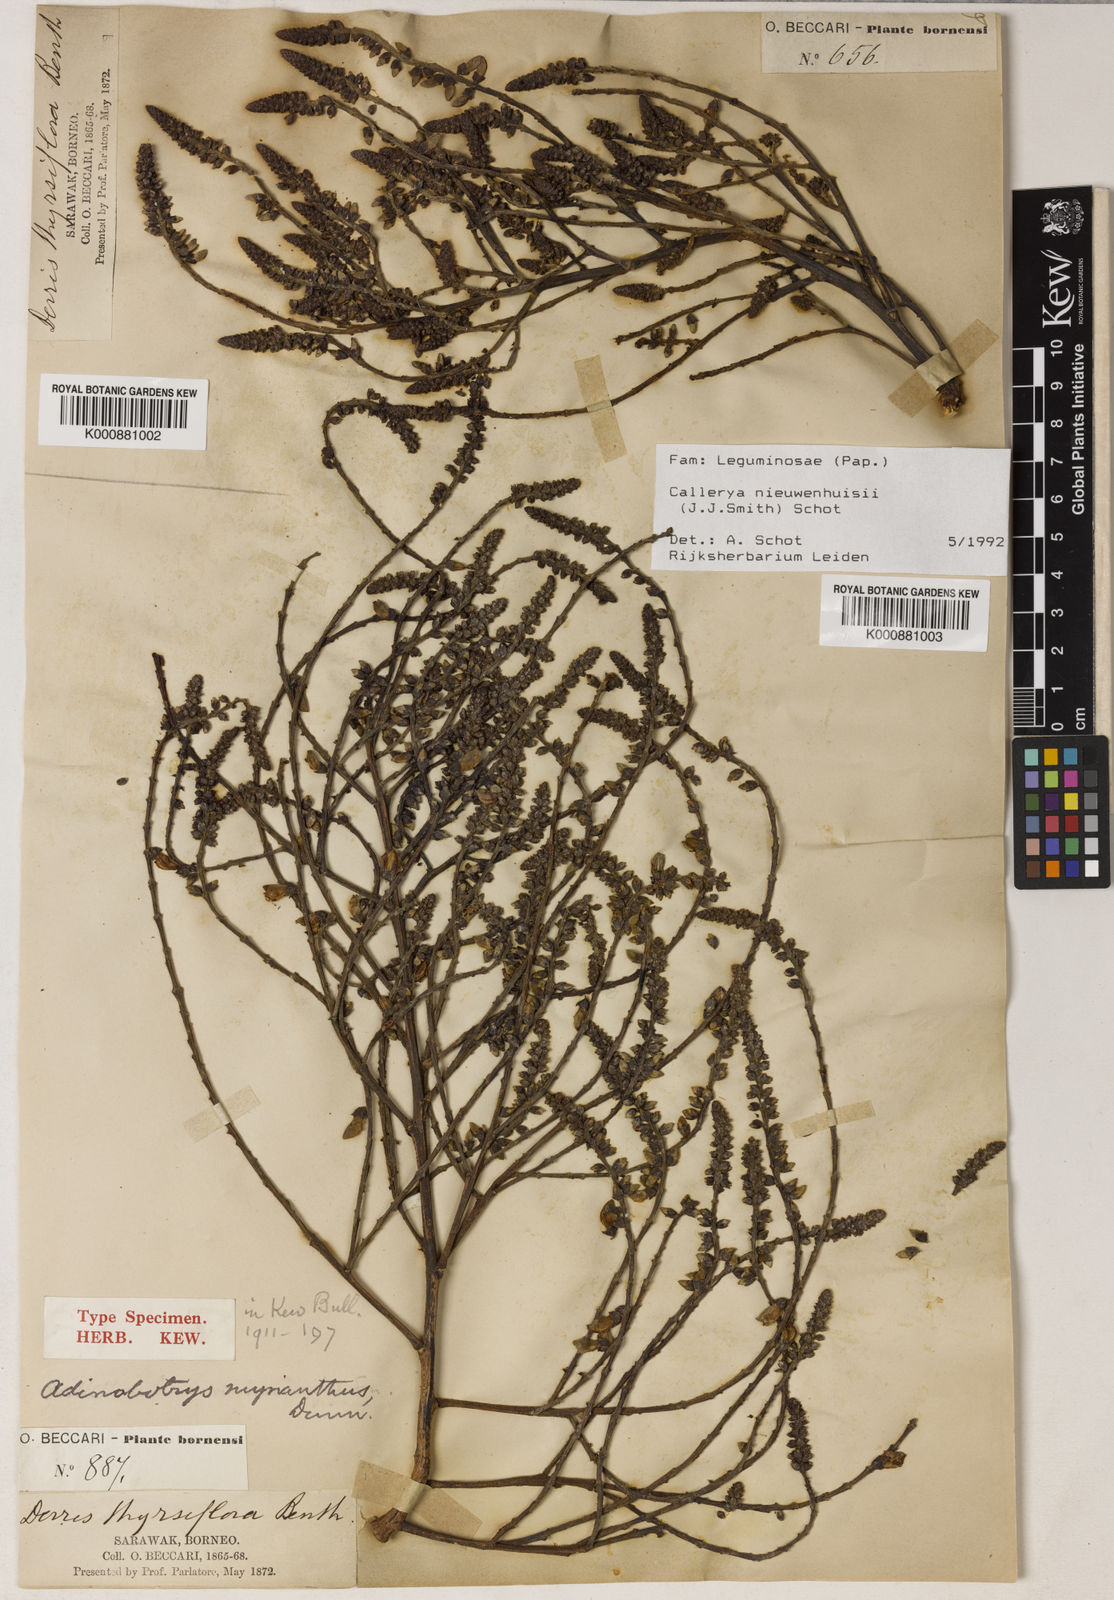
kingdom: Plantae
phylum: Tracheophyta
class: Magnoliopsida
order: Fabales
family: Fabaceae
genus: Whitfordiodendron
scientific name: Whitfordiodendron nieuwenhuisii
